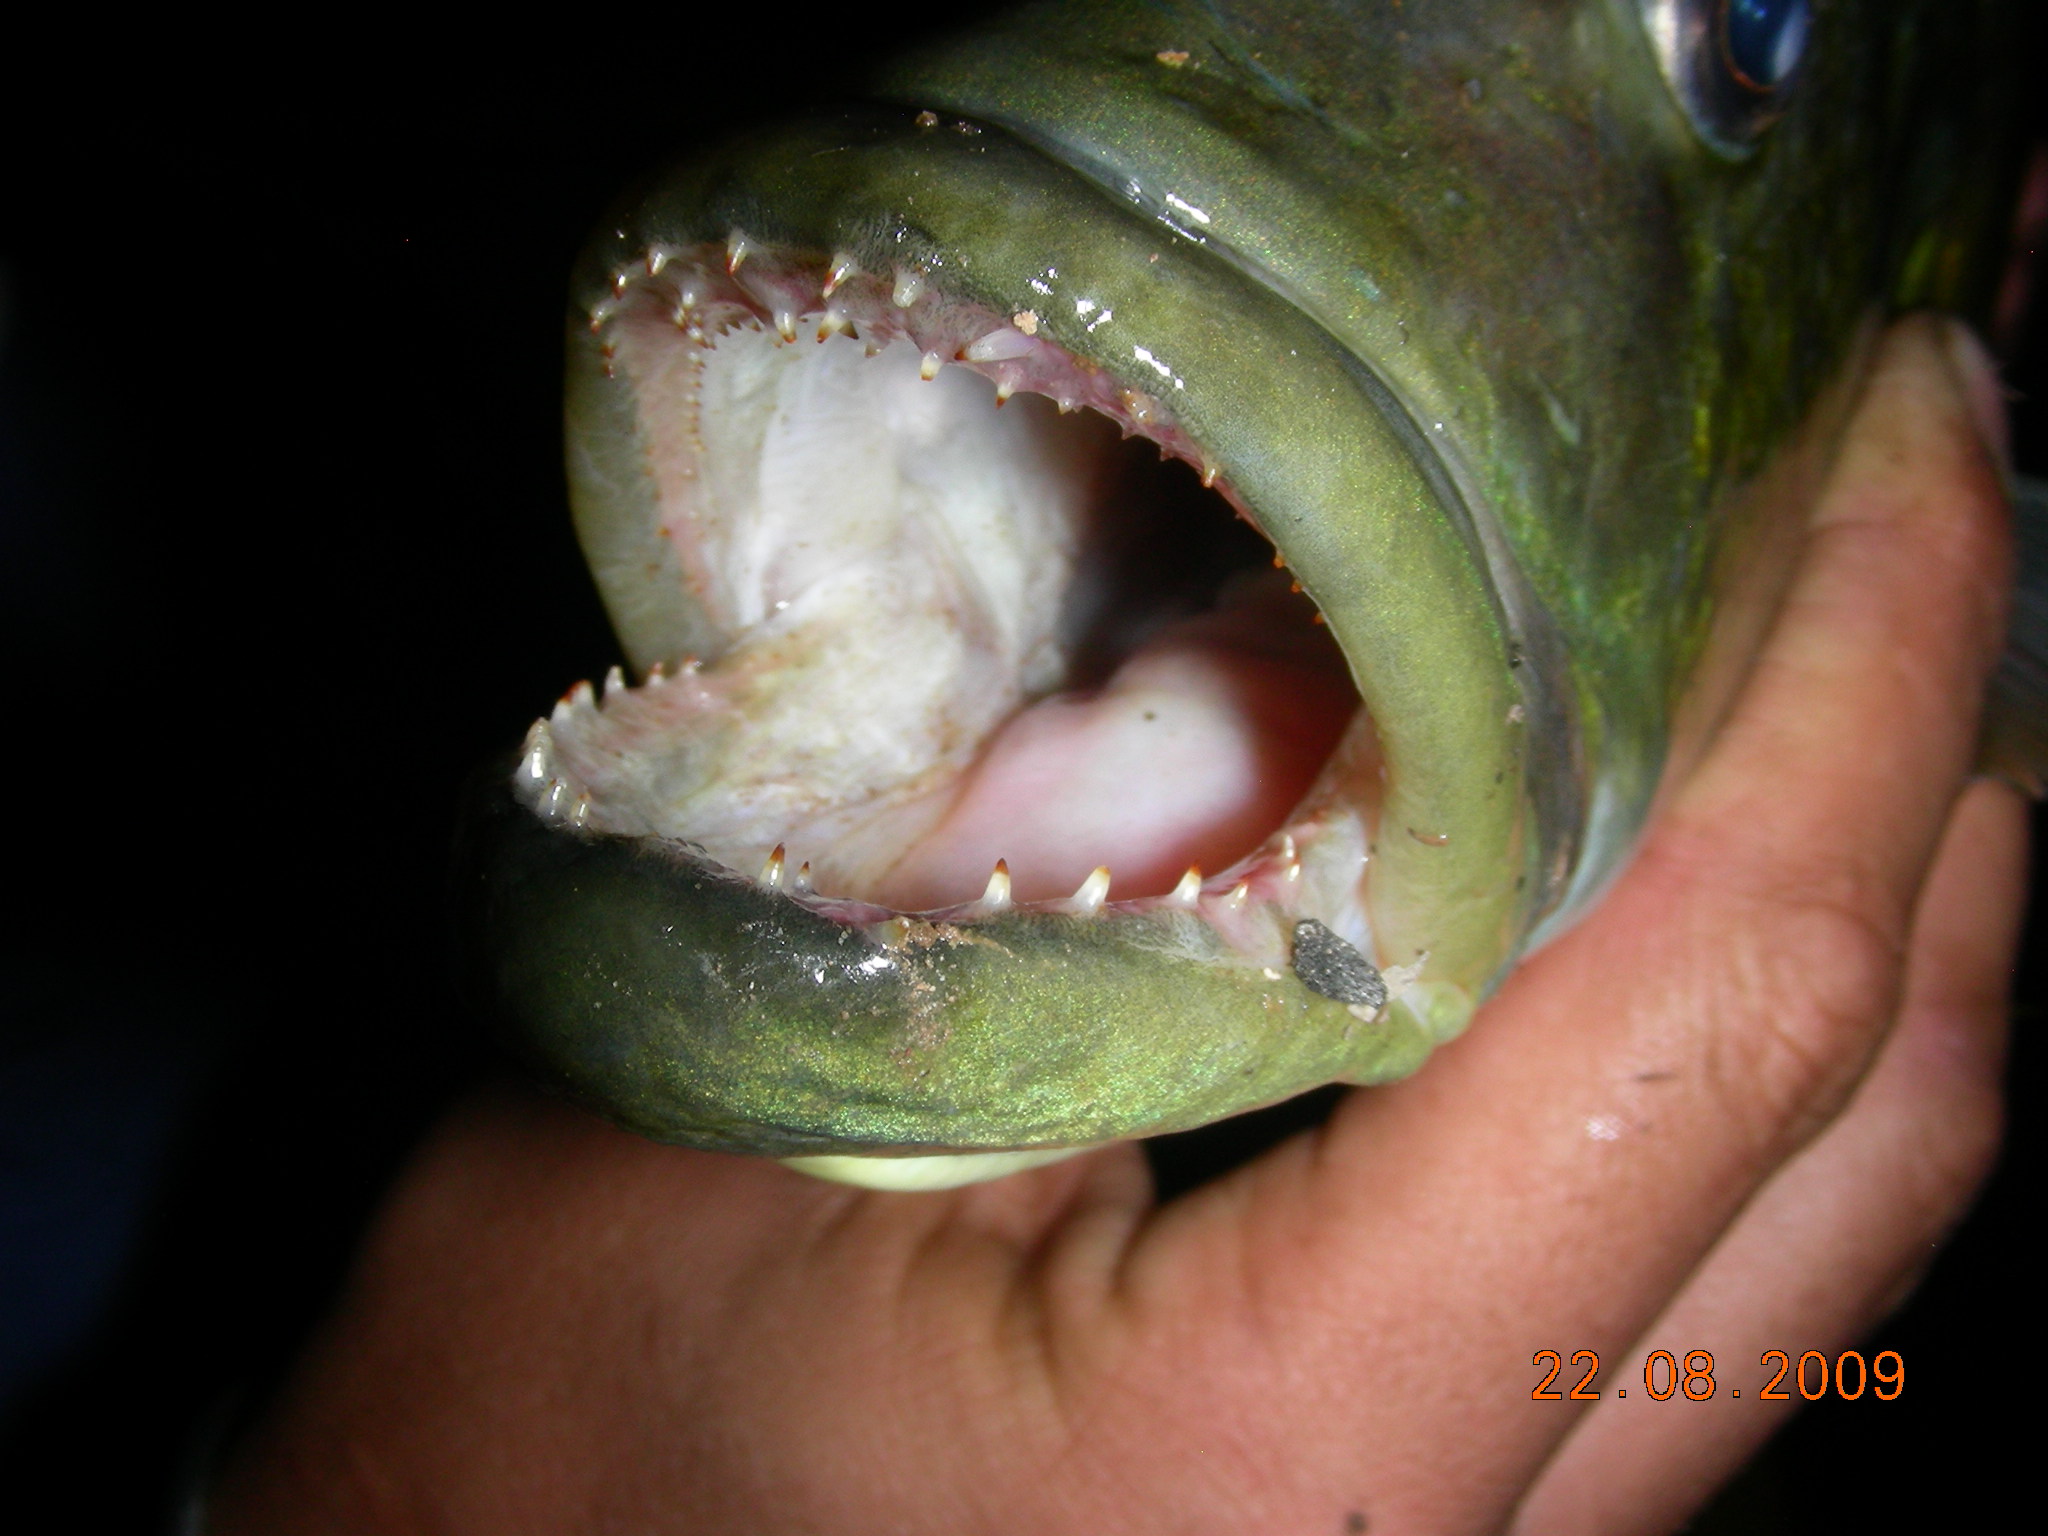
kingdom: Animalia
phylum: Chordata
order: Perciformes
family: Cichlidae
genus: Serranochromis
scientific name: Serranochromis
